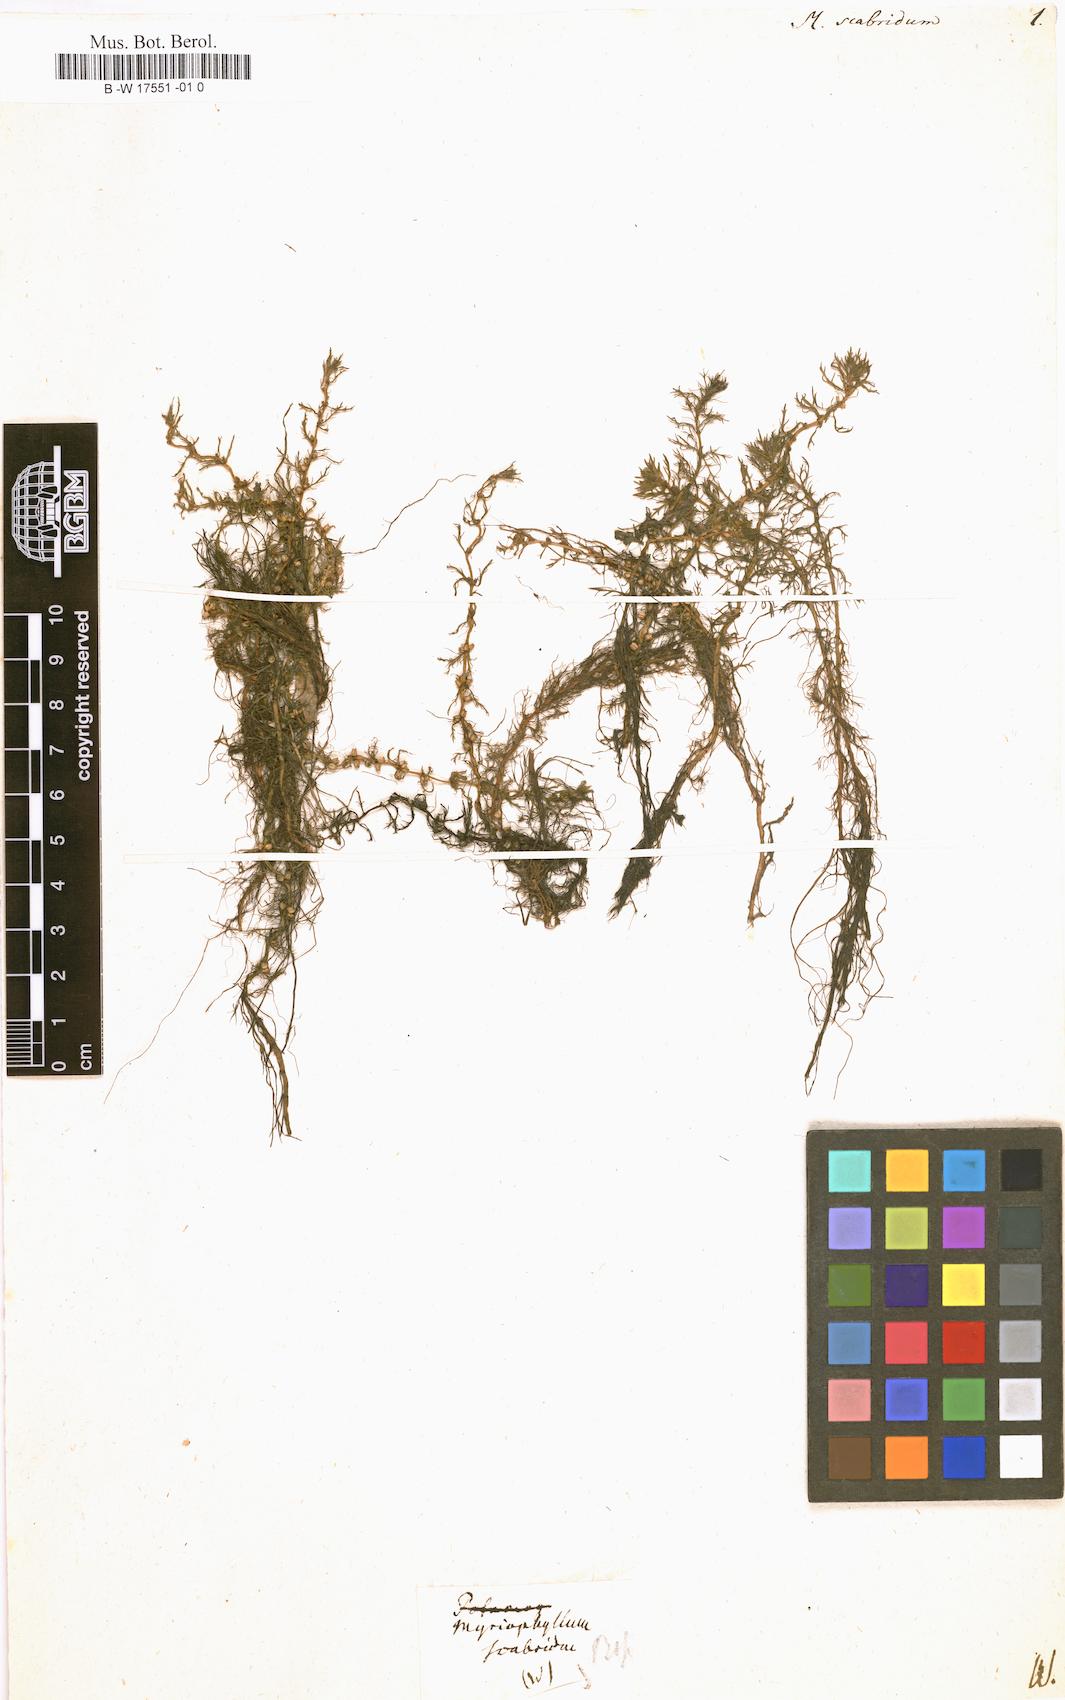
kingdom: Plantae
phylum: Tracheophyta
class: Magnoliopsida
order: Saxifragales
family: Haloragaceae
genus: Myriophyllum
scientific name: Myriophyllum
